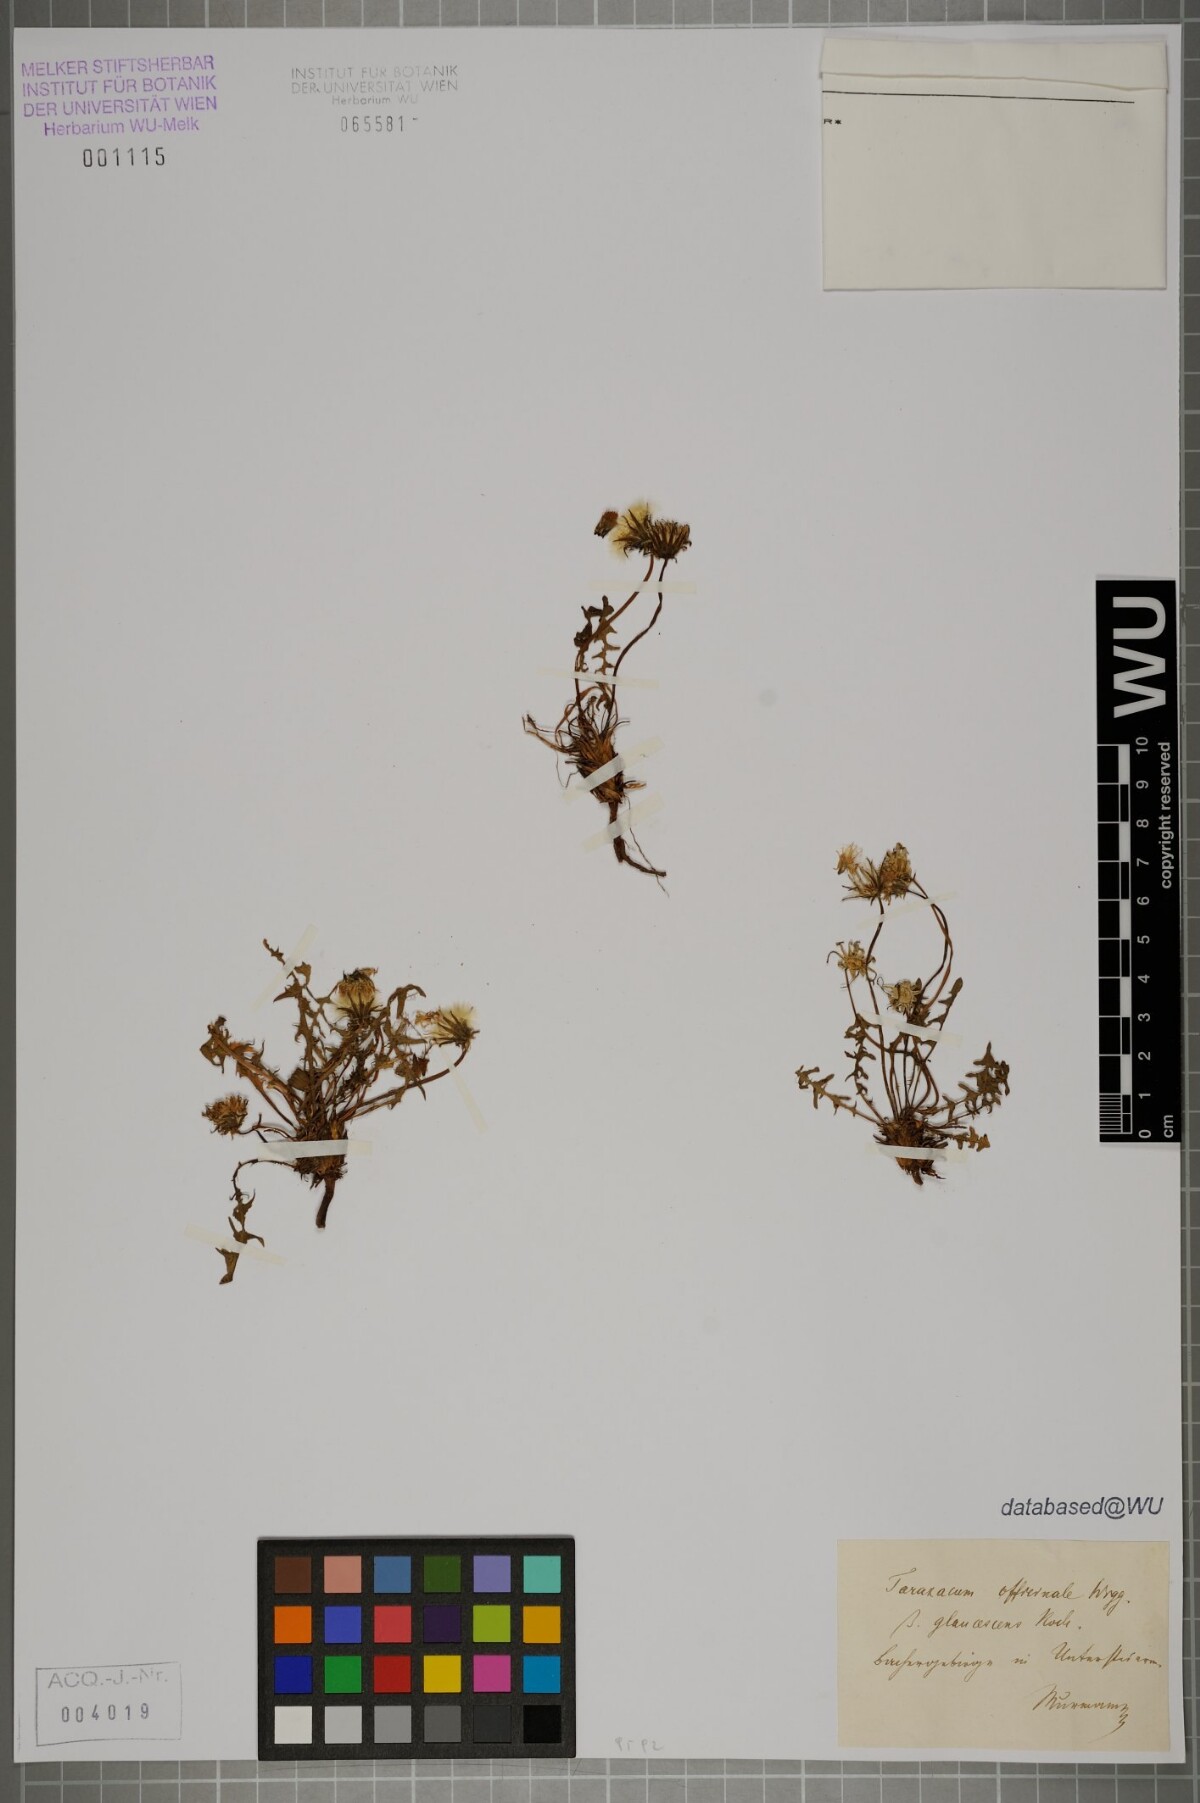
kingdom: Plantae
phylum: Tracheophyta
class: Magnoliopsida
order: Asterales
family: Asteraceae
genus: Taraxacum
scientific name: Taraxacum officinale
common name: Common dandelion
